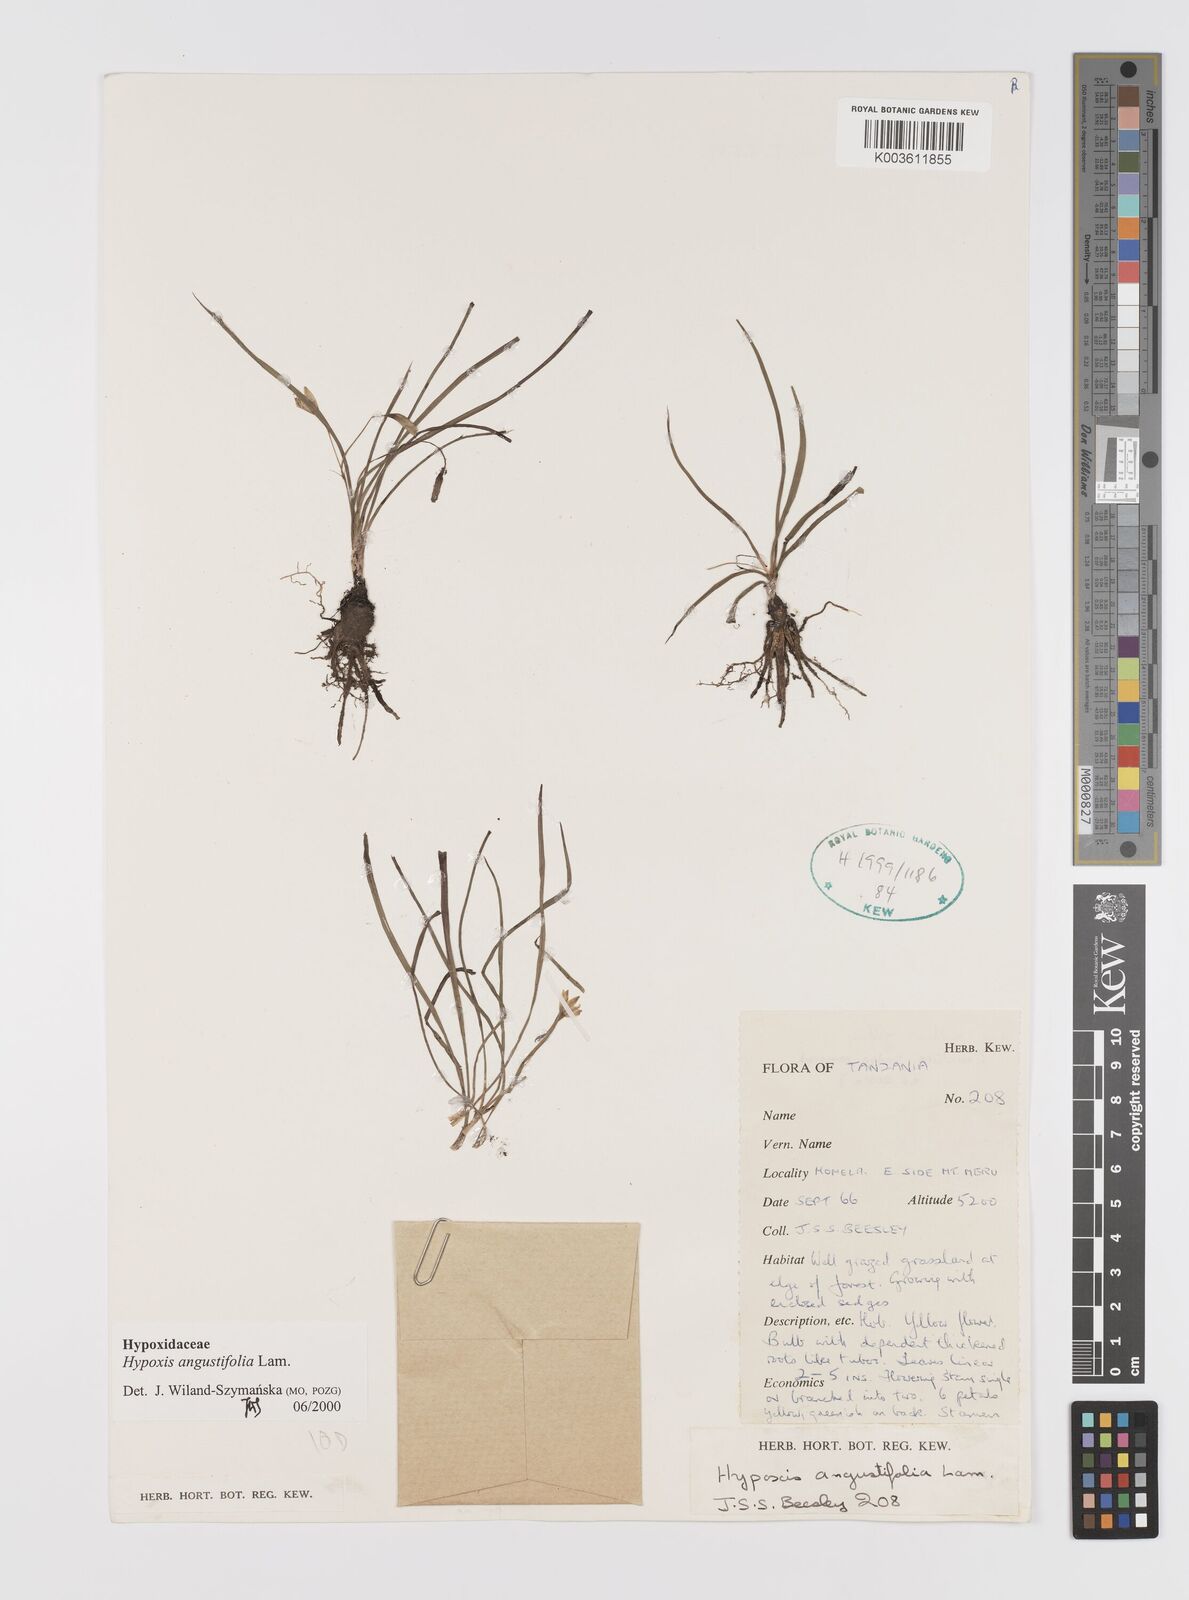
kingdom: Plantae
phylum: Tracheophyta
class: Liliopsida
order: Asparagales
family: Hypoxidaceae
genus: Hypoxis
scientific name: Hypoxis angustifolia
